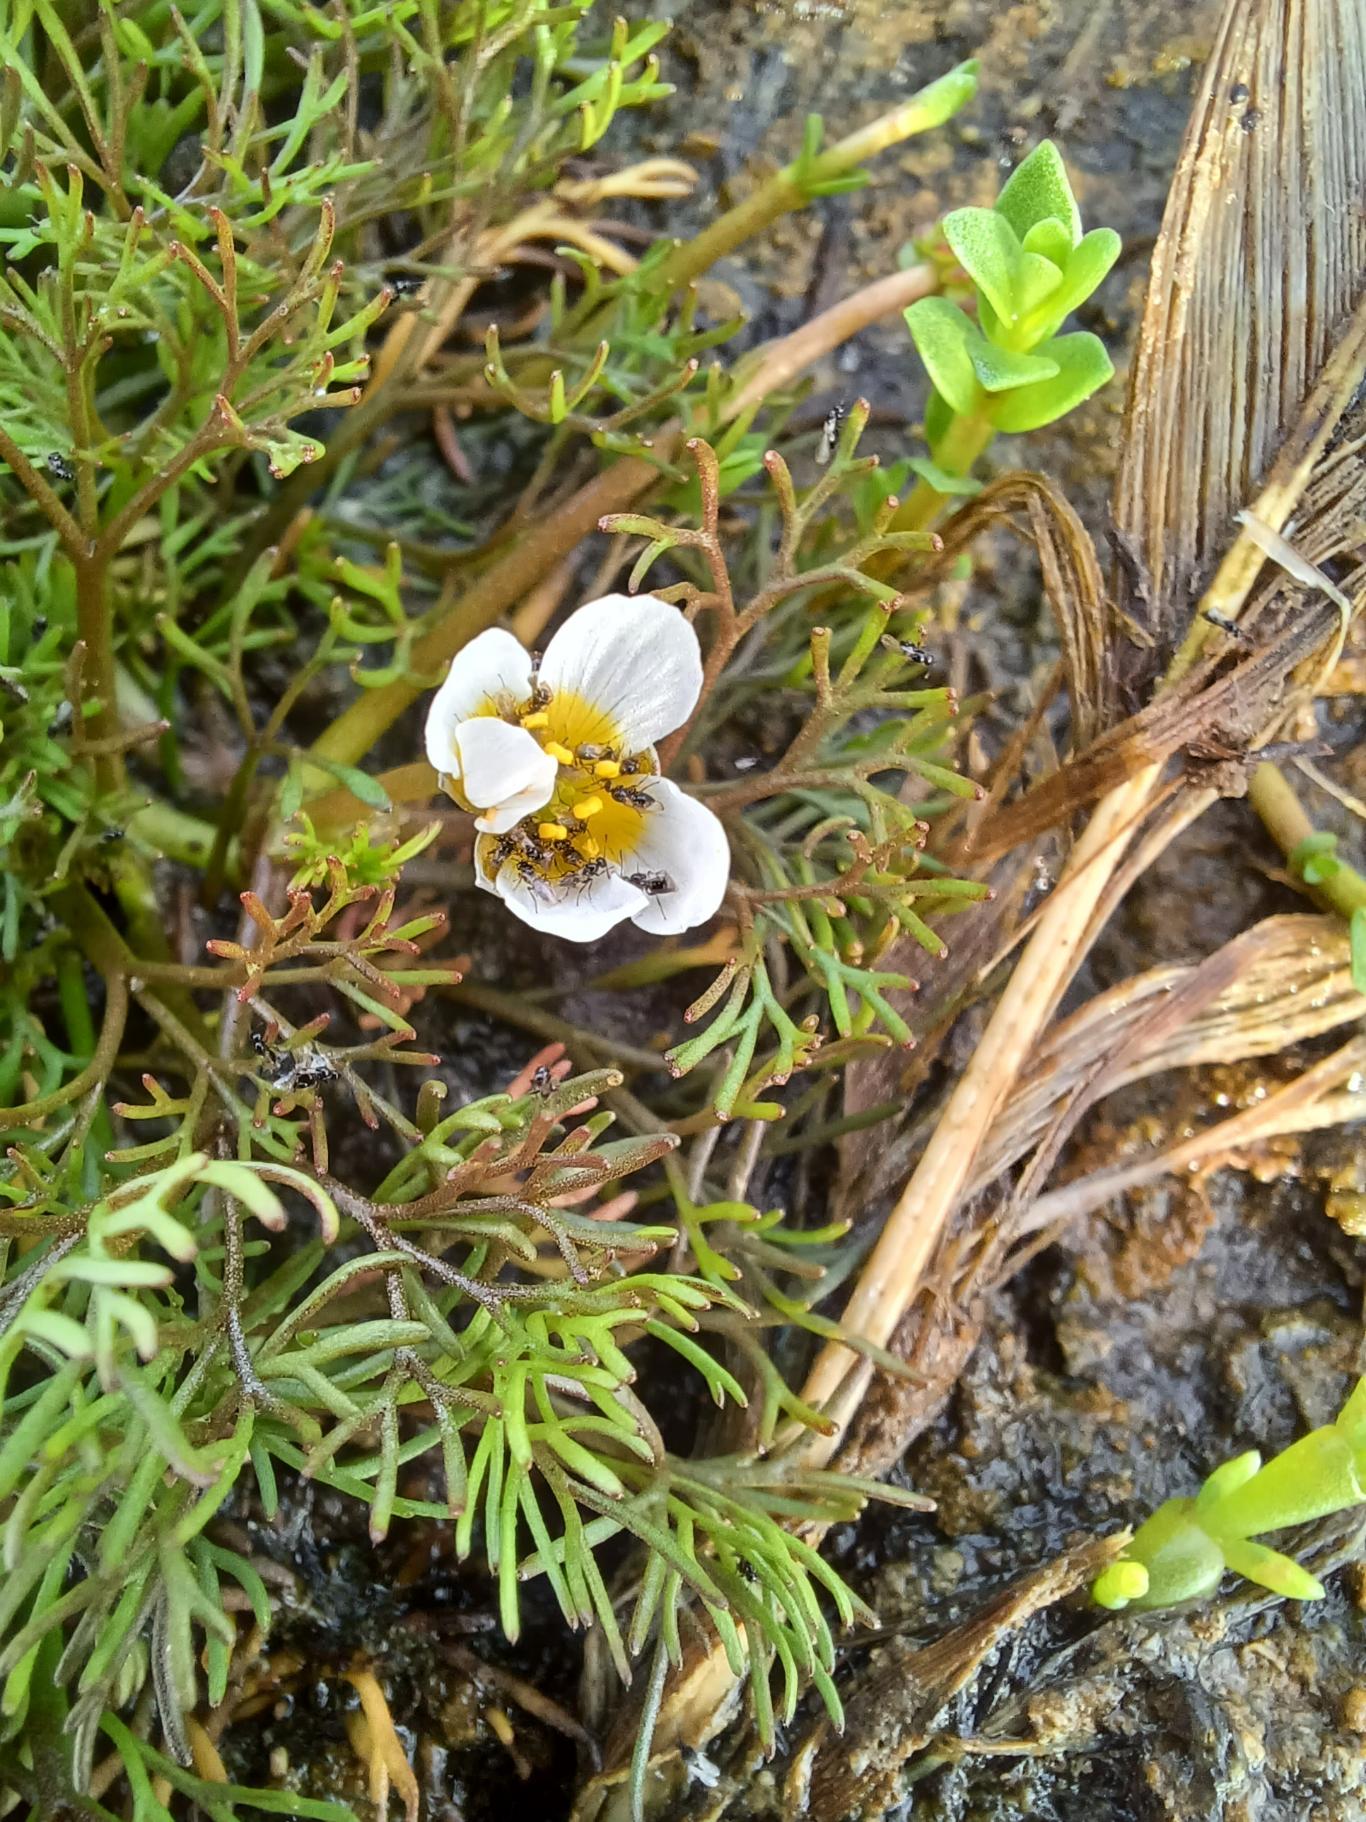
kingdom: Plantae
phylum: Tracheophyta
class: Magnoliopsida
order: Ranunculales
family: Ranunculaceae
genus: Ranunculus
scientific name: Ranunculus
